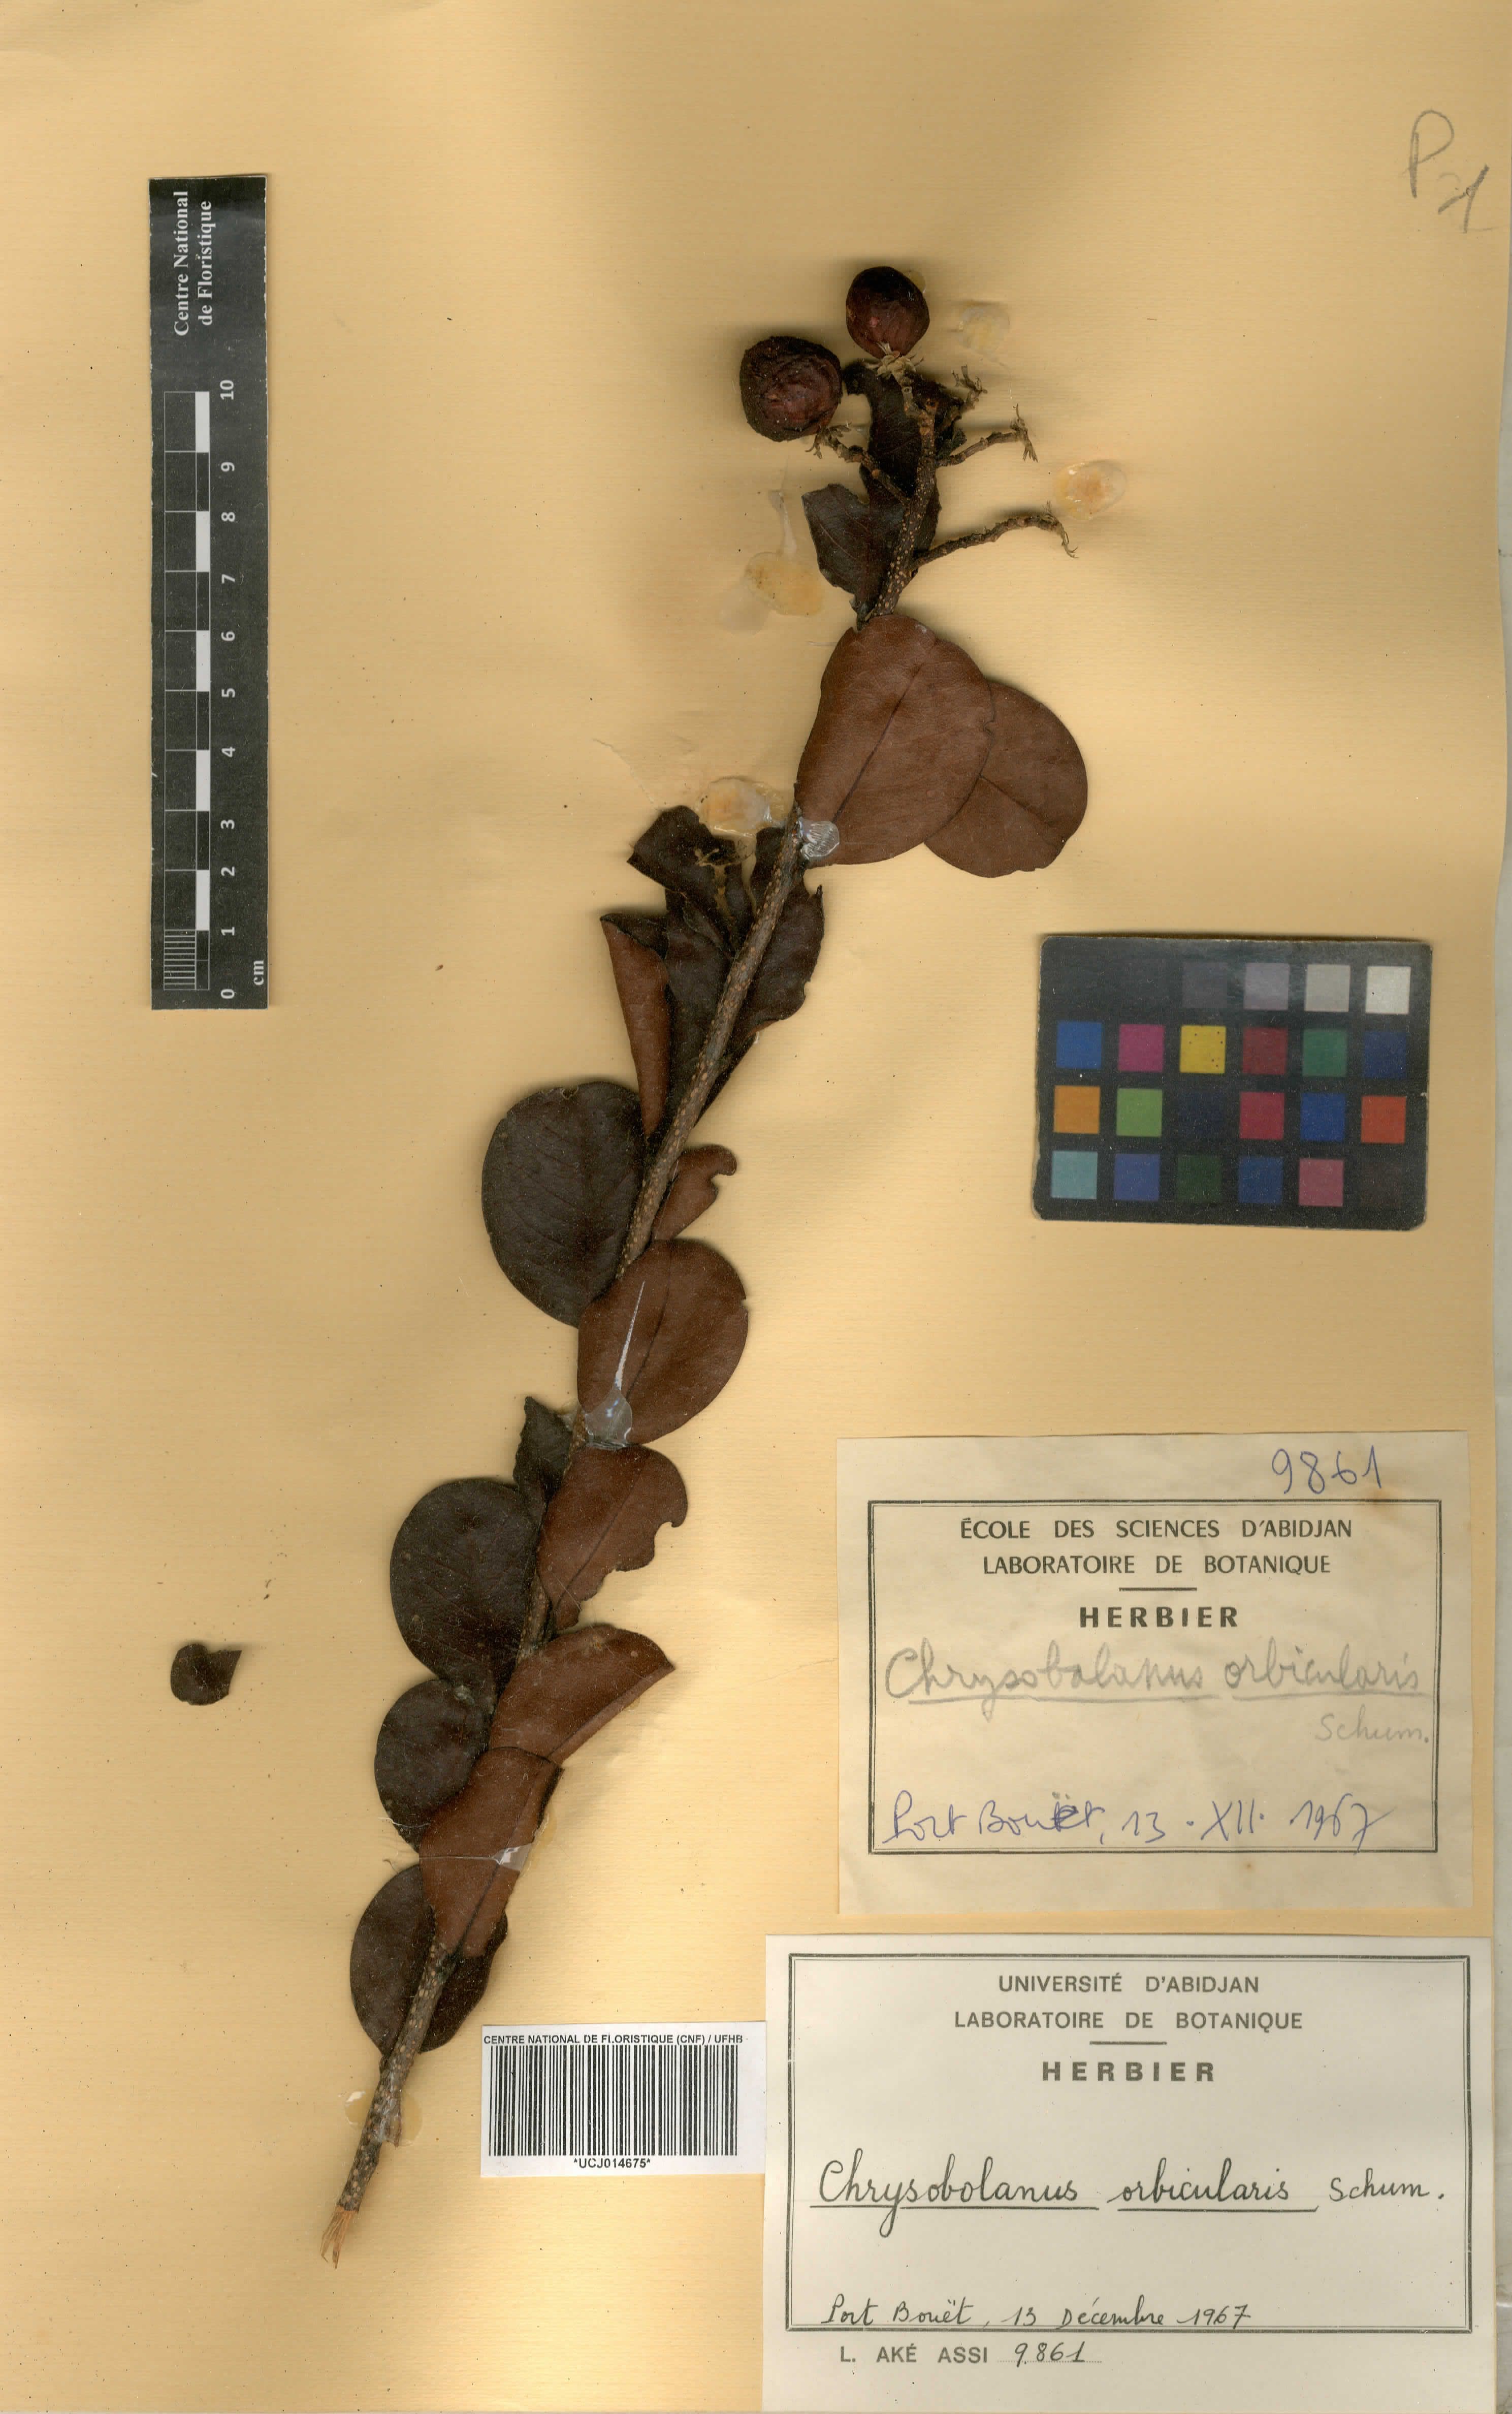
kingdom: Plantae
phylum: Tracheophyta
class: Magnoliopsida
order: Malpighiales
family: Chrysobalanaceae
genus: Chrysobalanus
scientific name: Chrysobalanus icaco
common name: Coco plum
